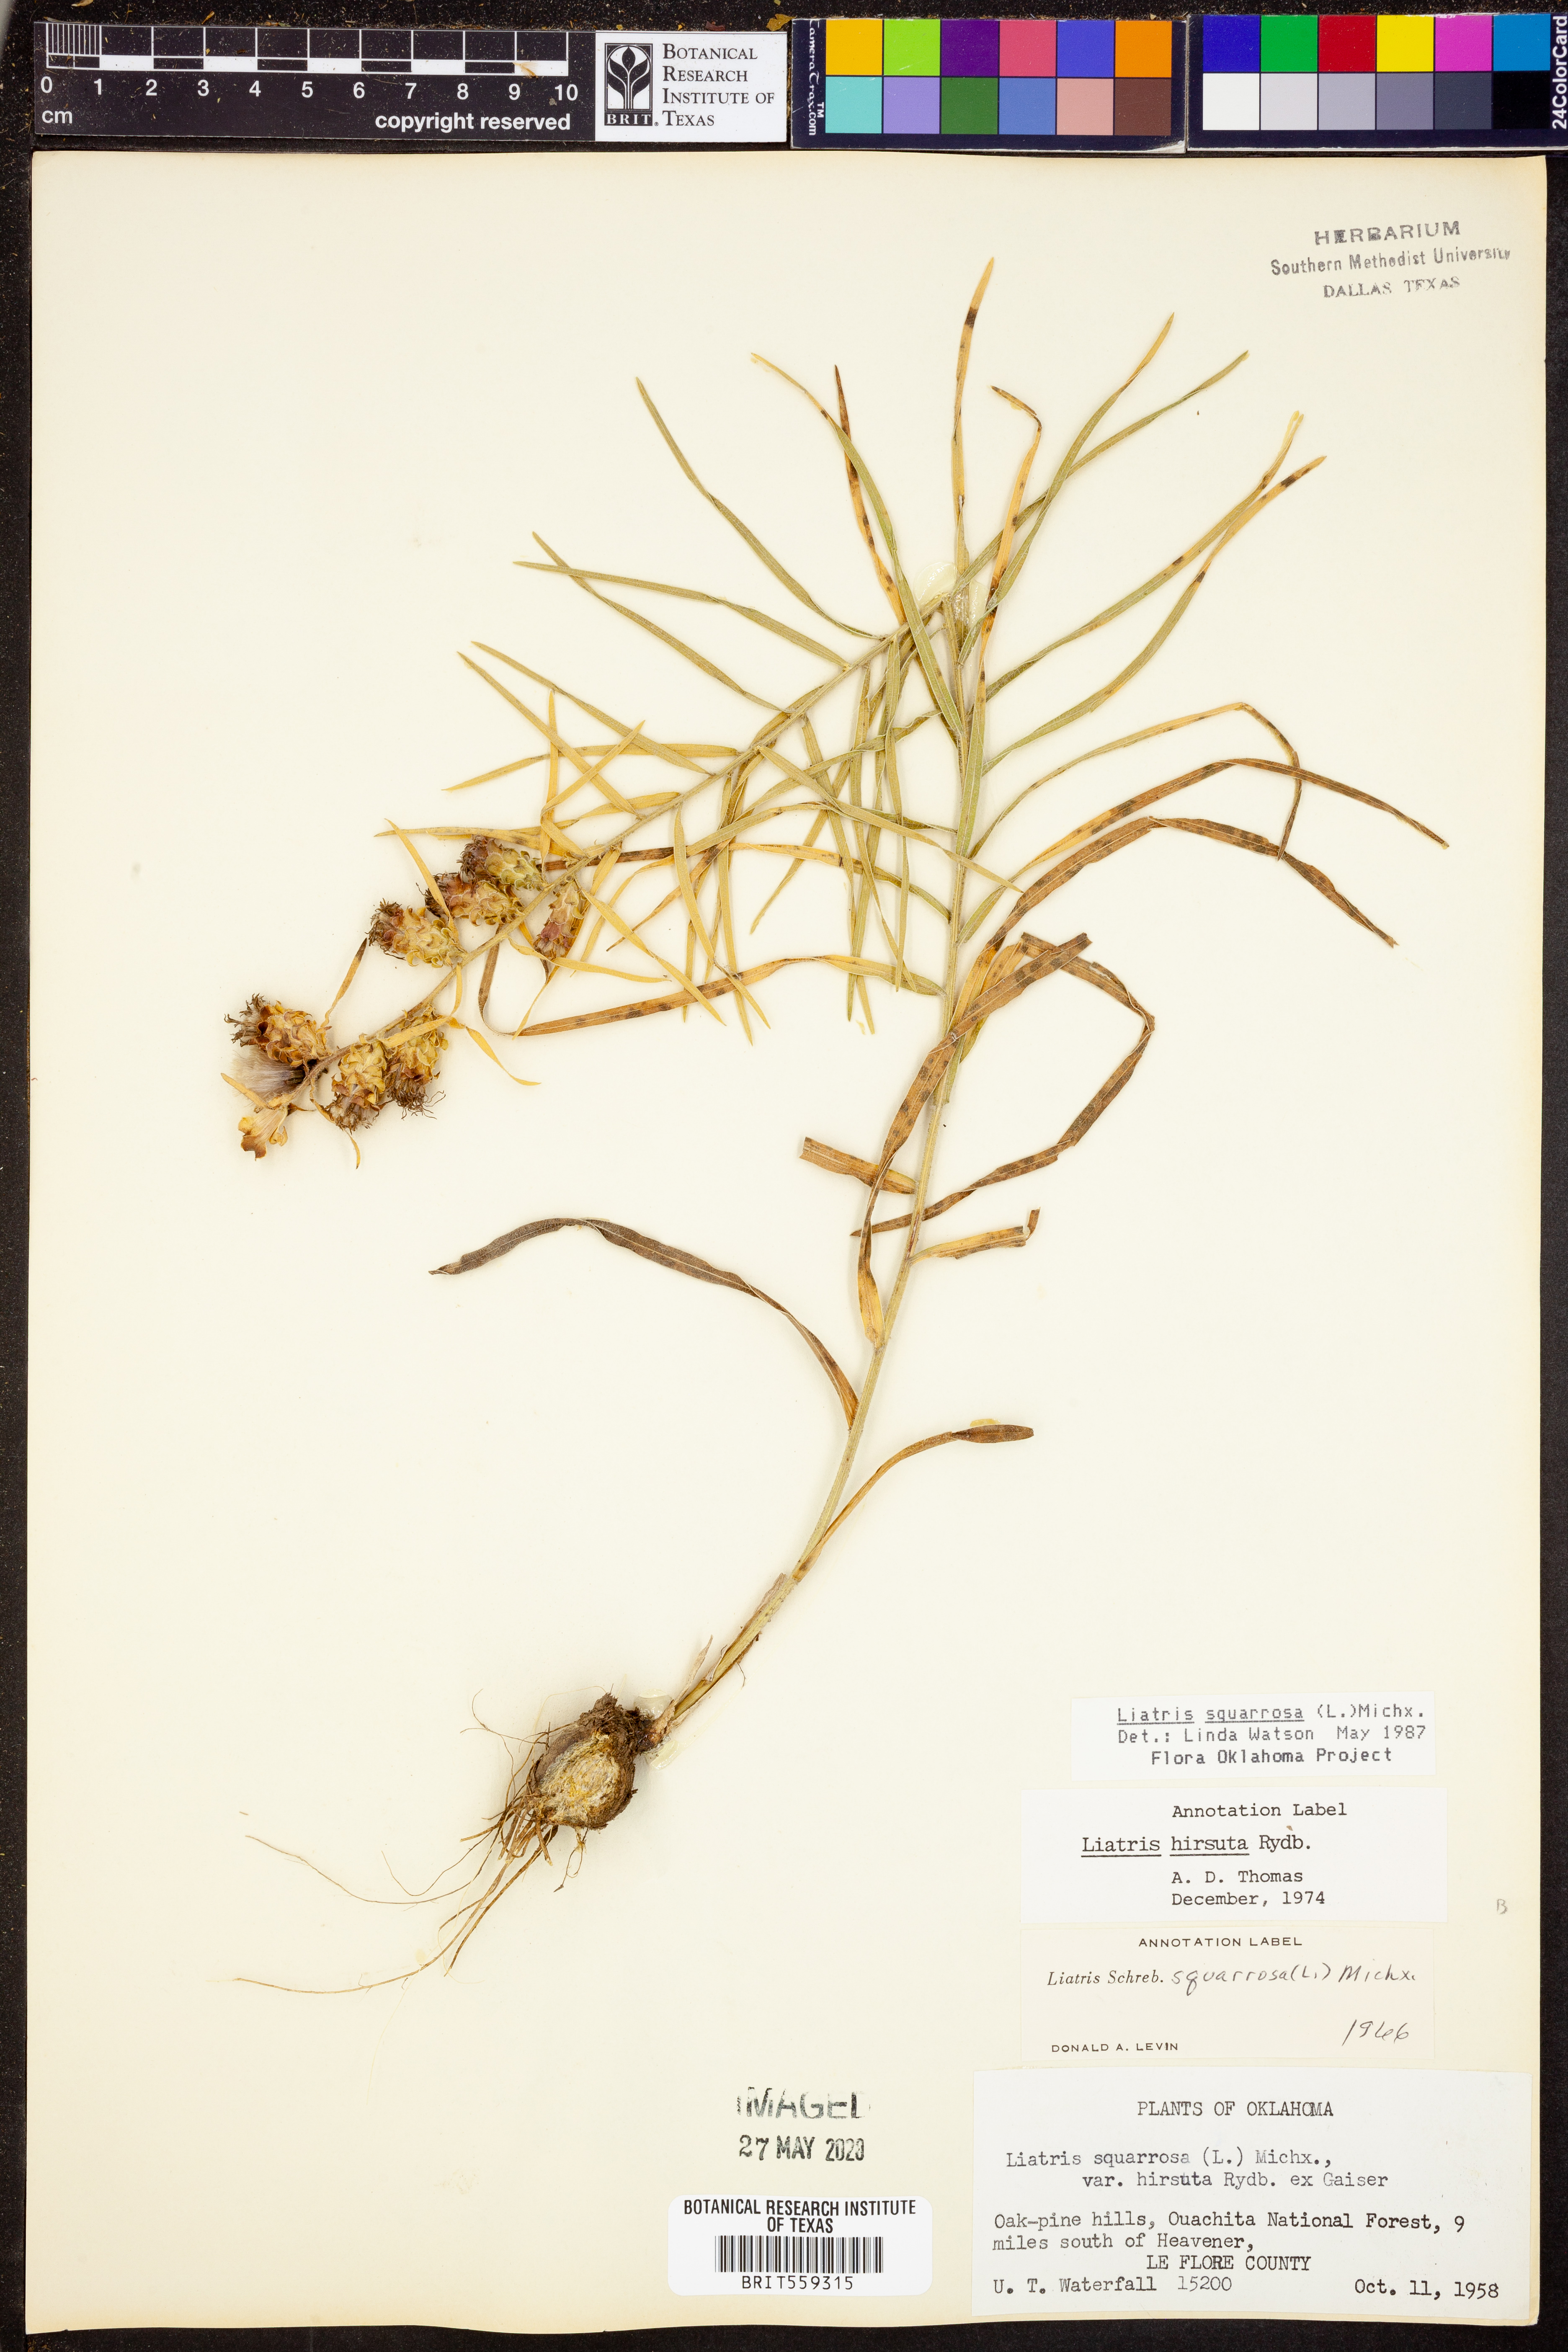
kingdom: Plantae
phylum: Tracheophyta
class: Magnoliopsida
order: Asterales
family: Asteraceae
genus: Liatris
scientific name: Liatris squarrosa
